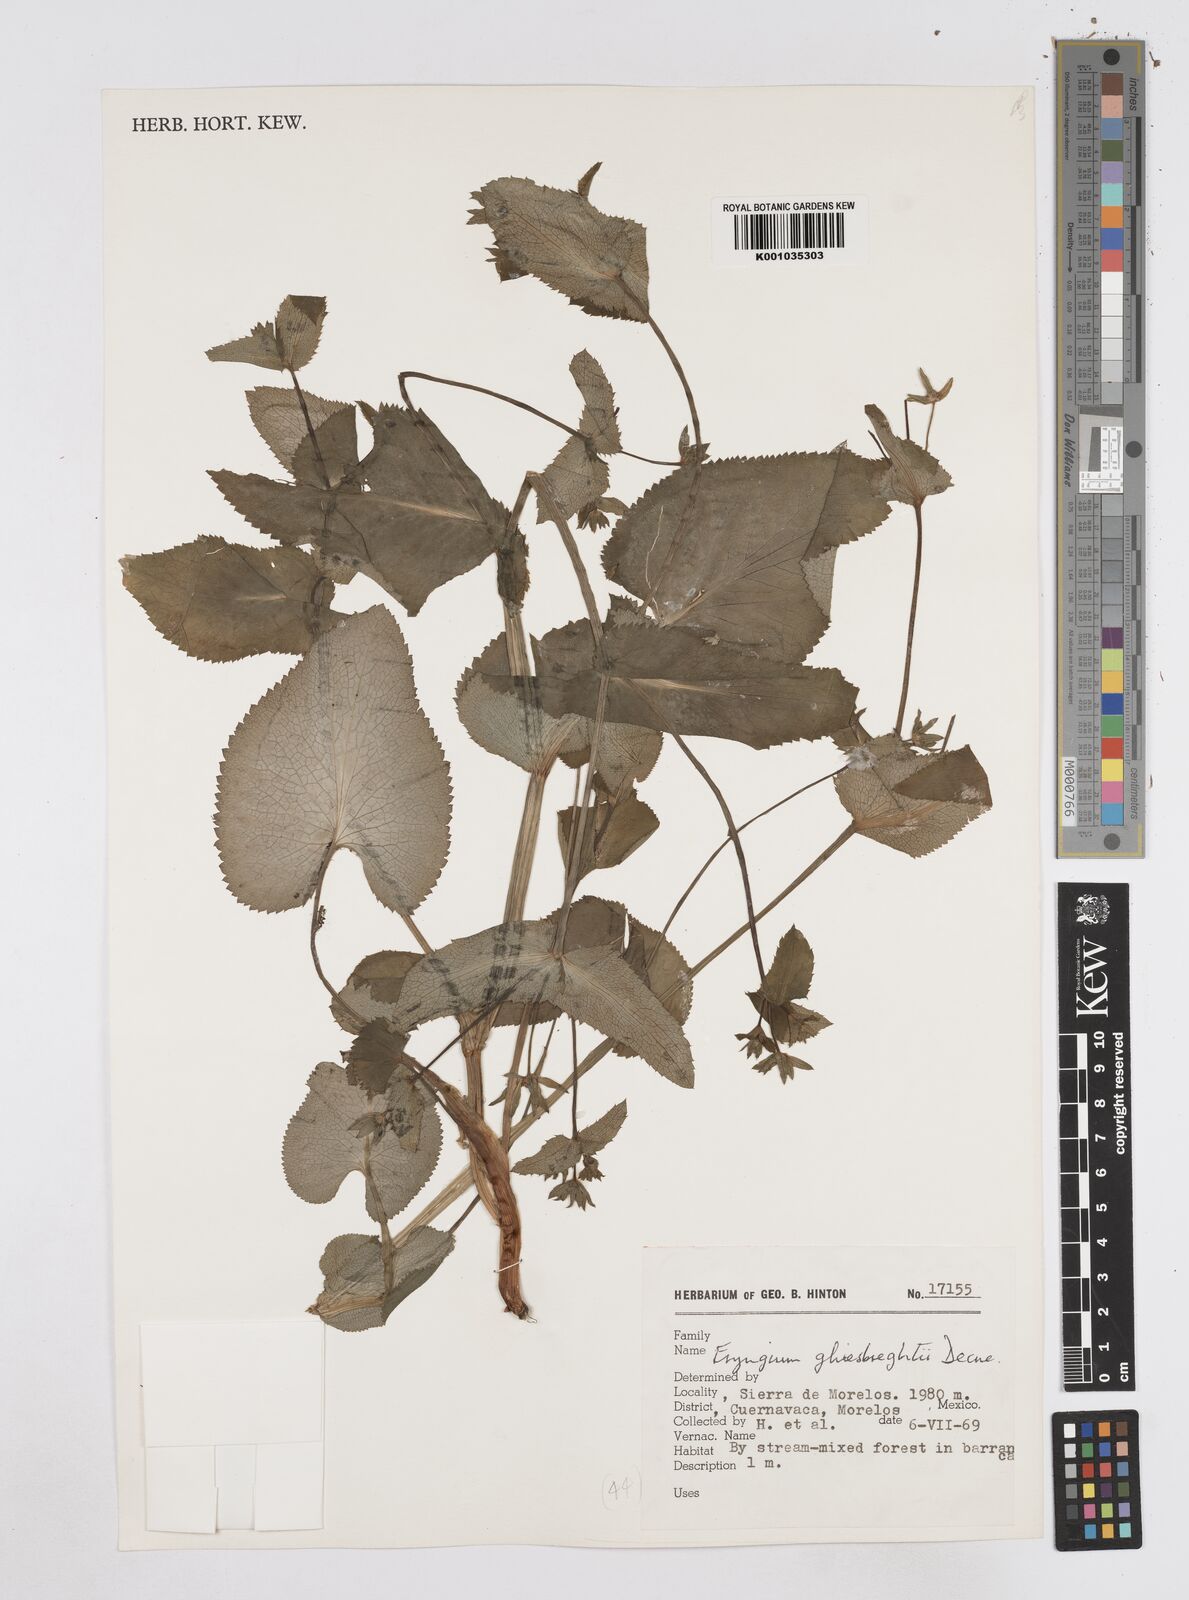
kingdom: Plantae
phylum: Tracheophyta
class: Magnoliopsida
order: Apiales
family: Apiaceae
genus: Eryngium
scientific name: Eryngium ghiesbreghtii
